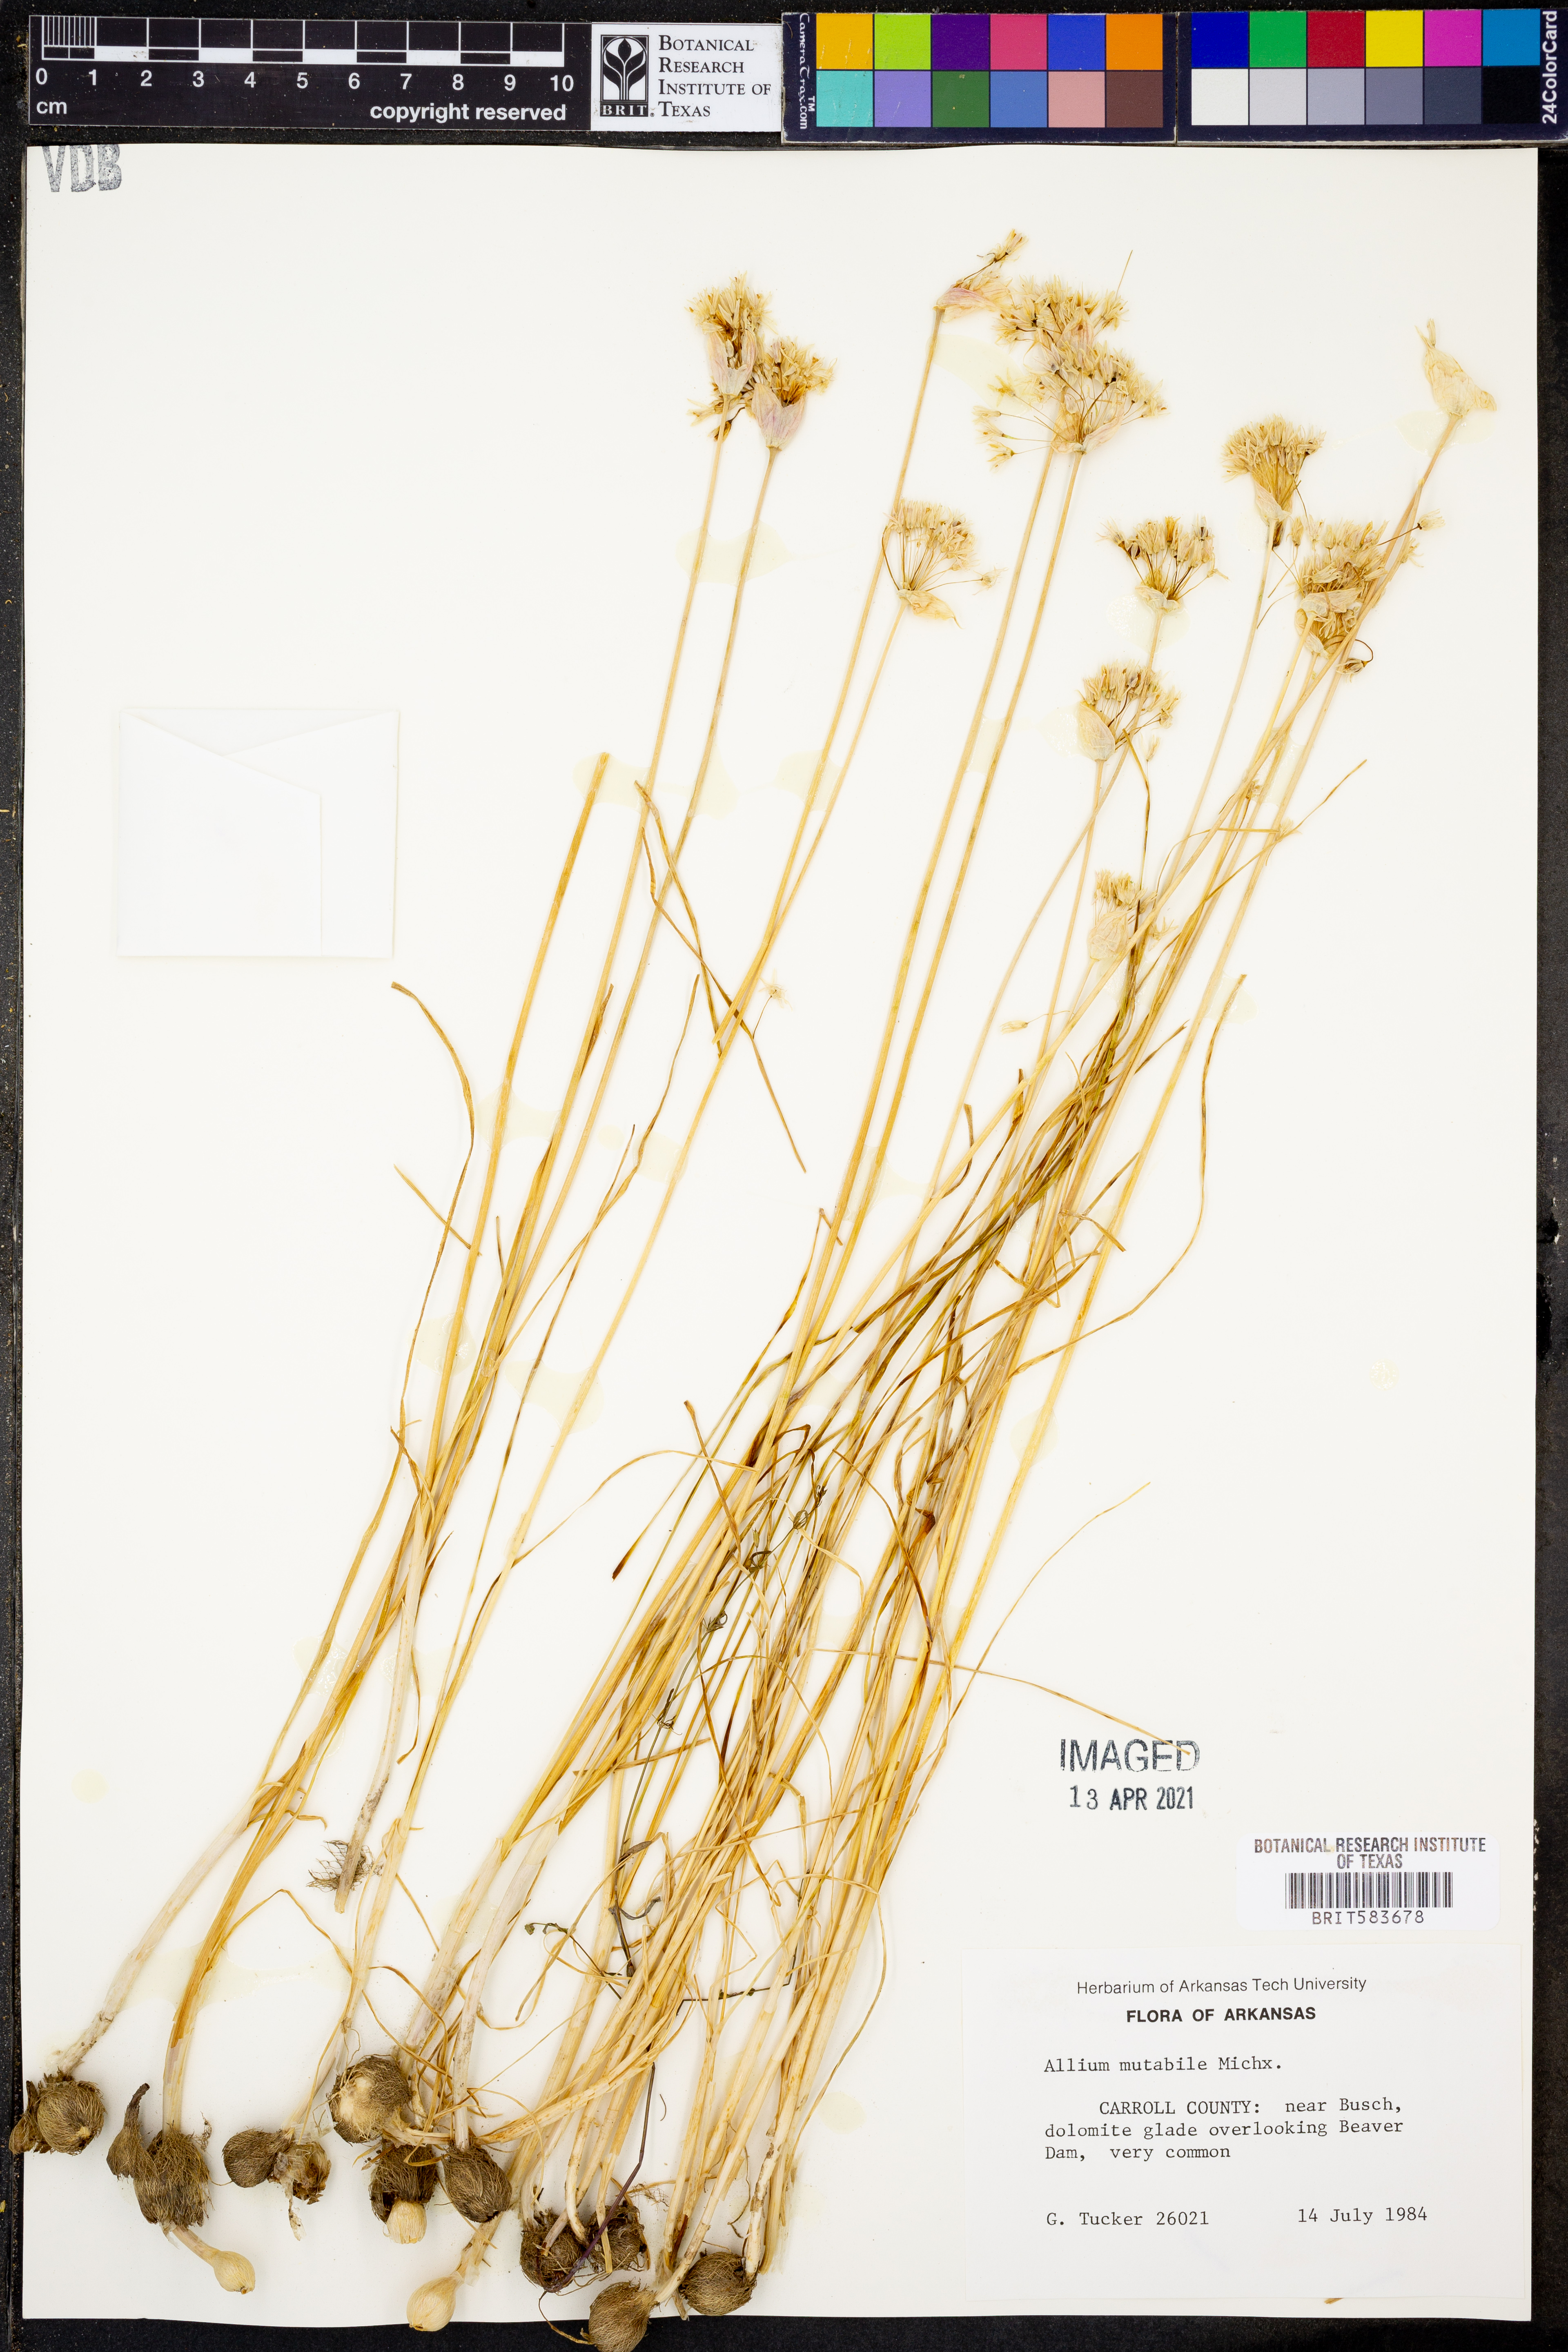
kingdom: Plantae
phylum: Tracheophyta
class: Liliopsida
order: Asparagales
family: Amaryllidaceae
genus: Allium
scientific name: Allium canadense
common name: Meadow garlic
